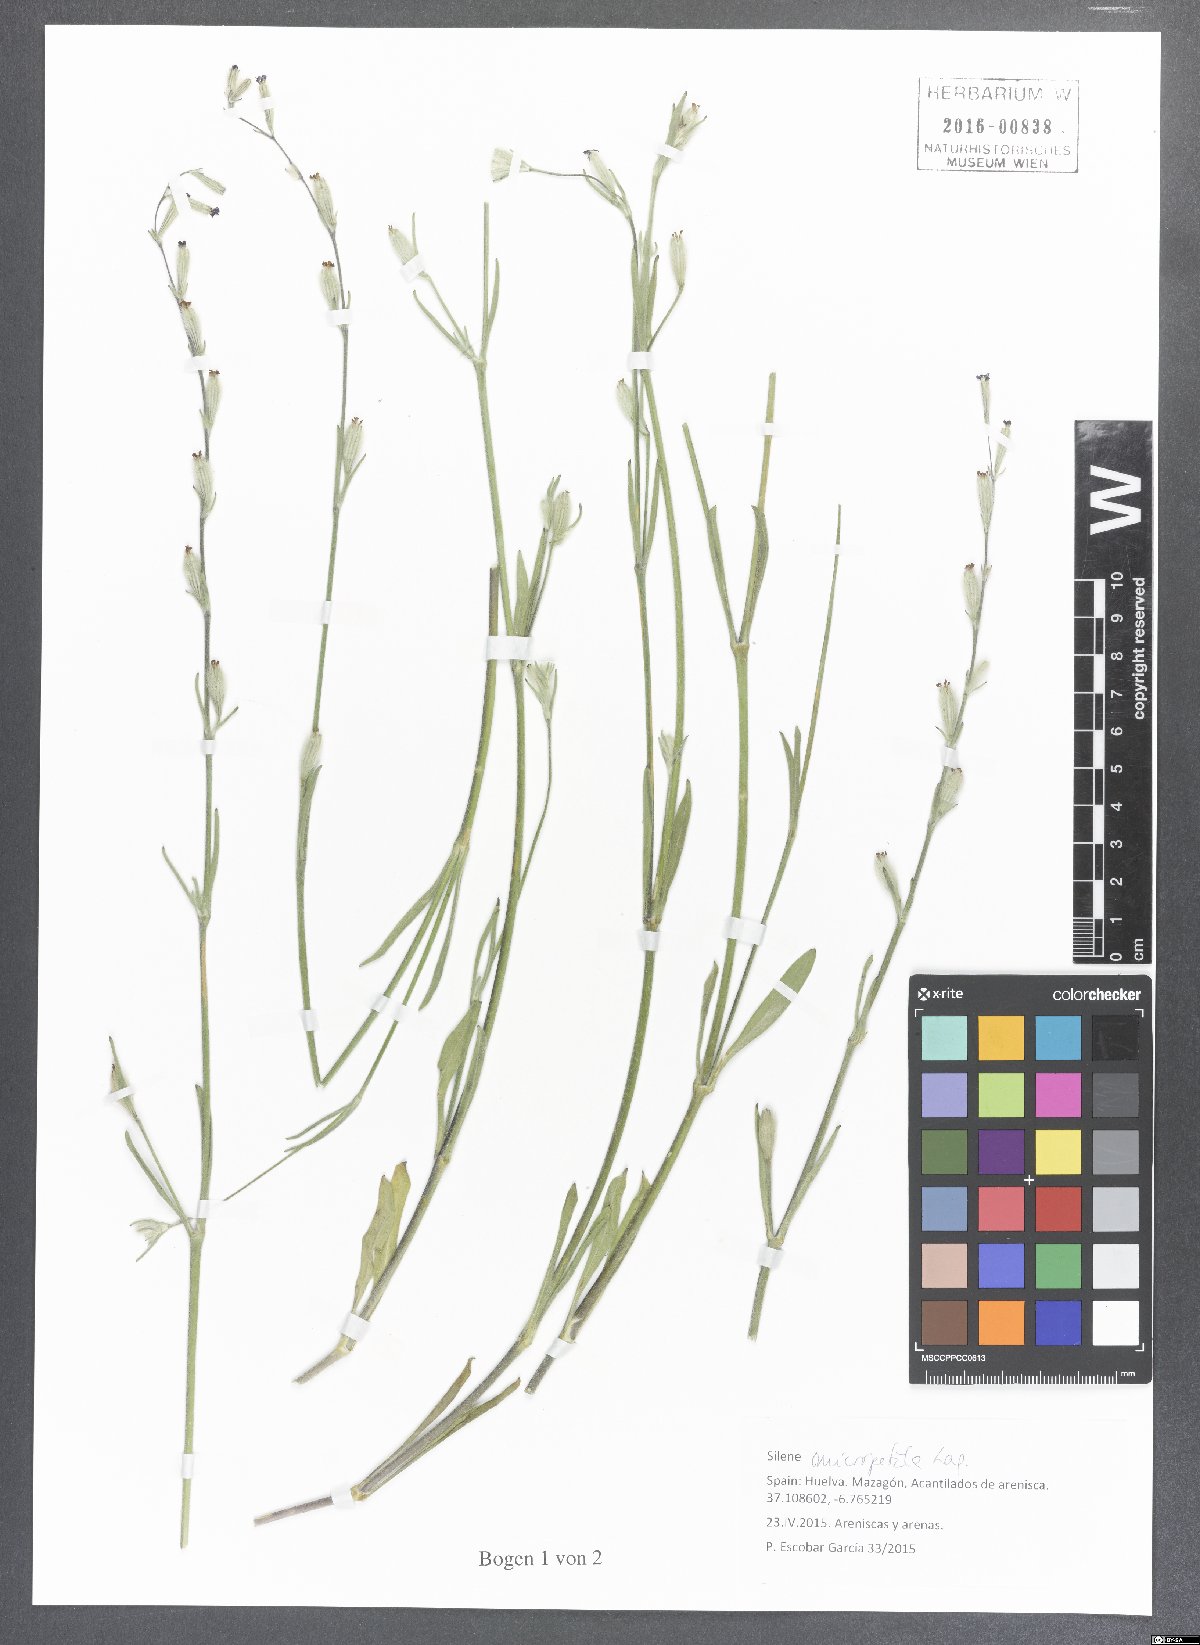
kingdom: Plantae
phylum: Tracheophyta
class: Magnoliopsida
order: Caryophyllales
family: Caryophyllaceae
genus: Silene
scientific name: Silene micropetala
